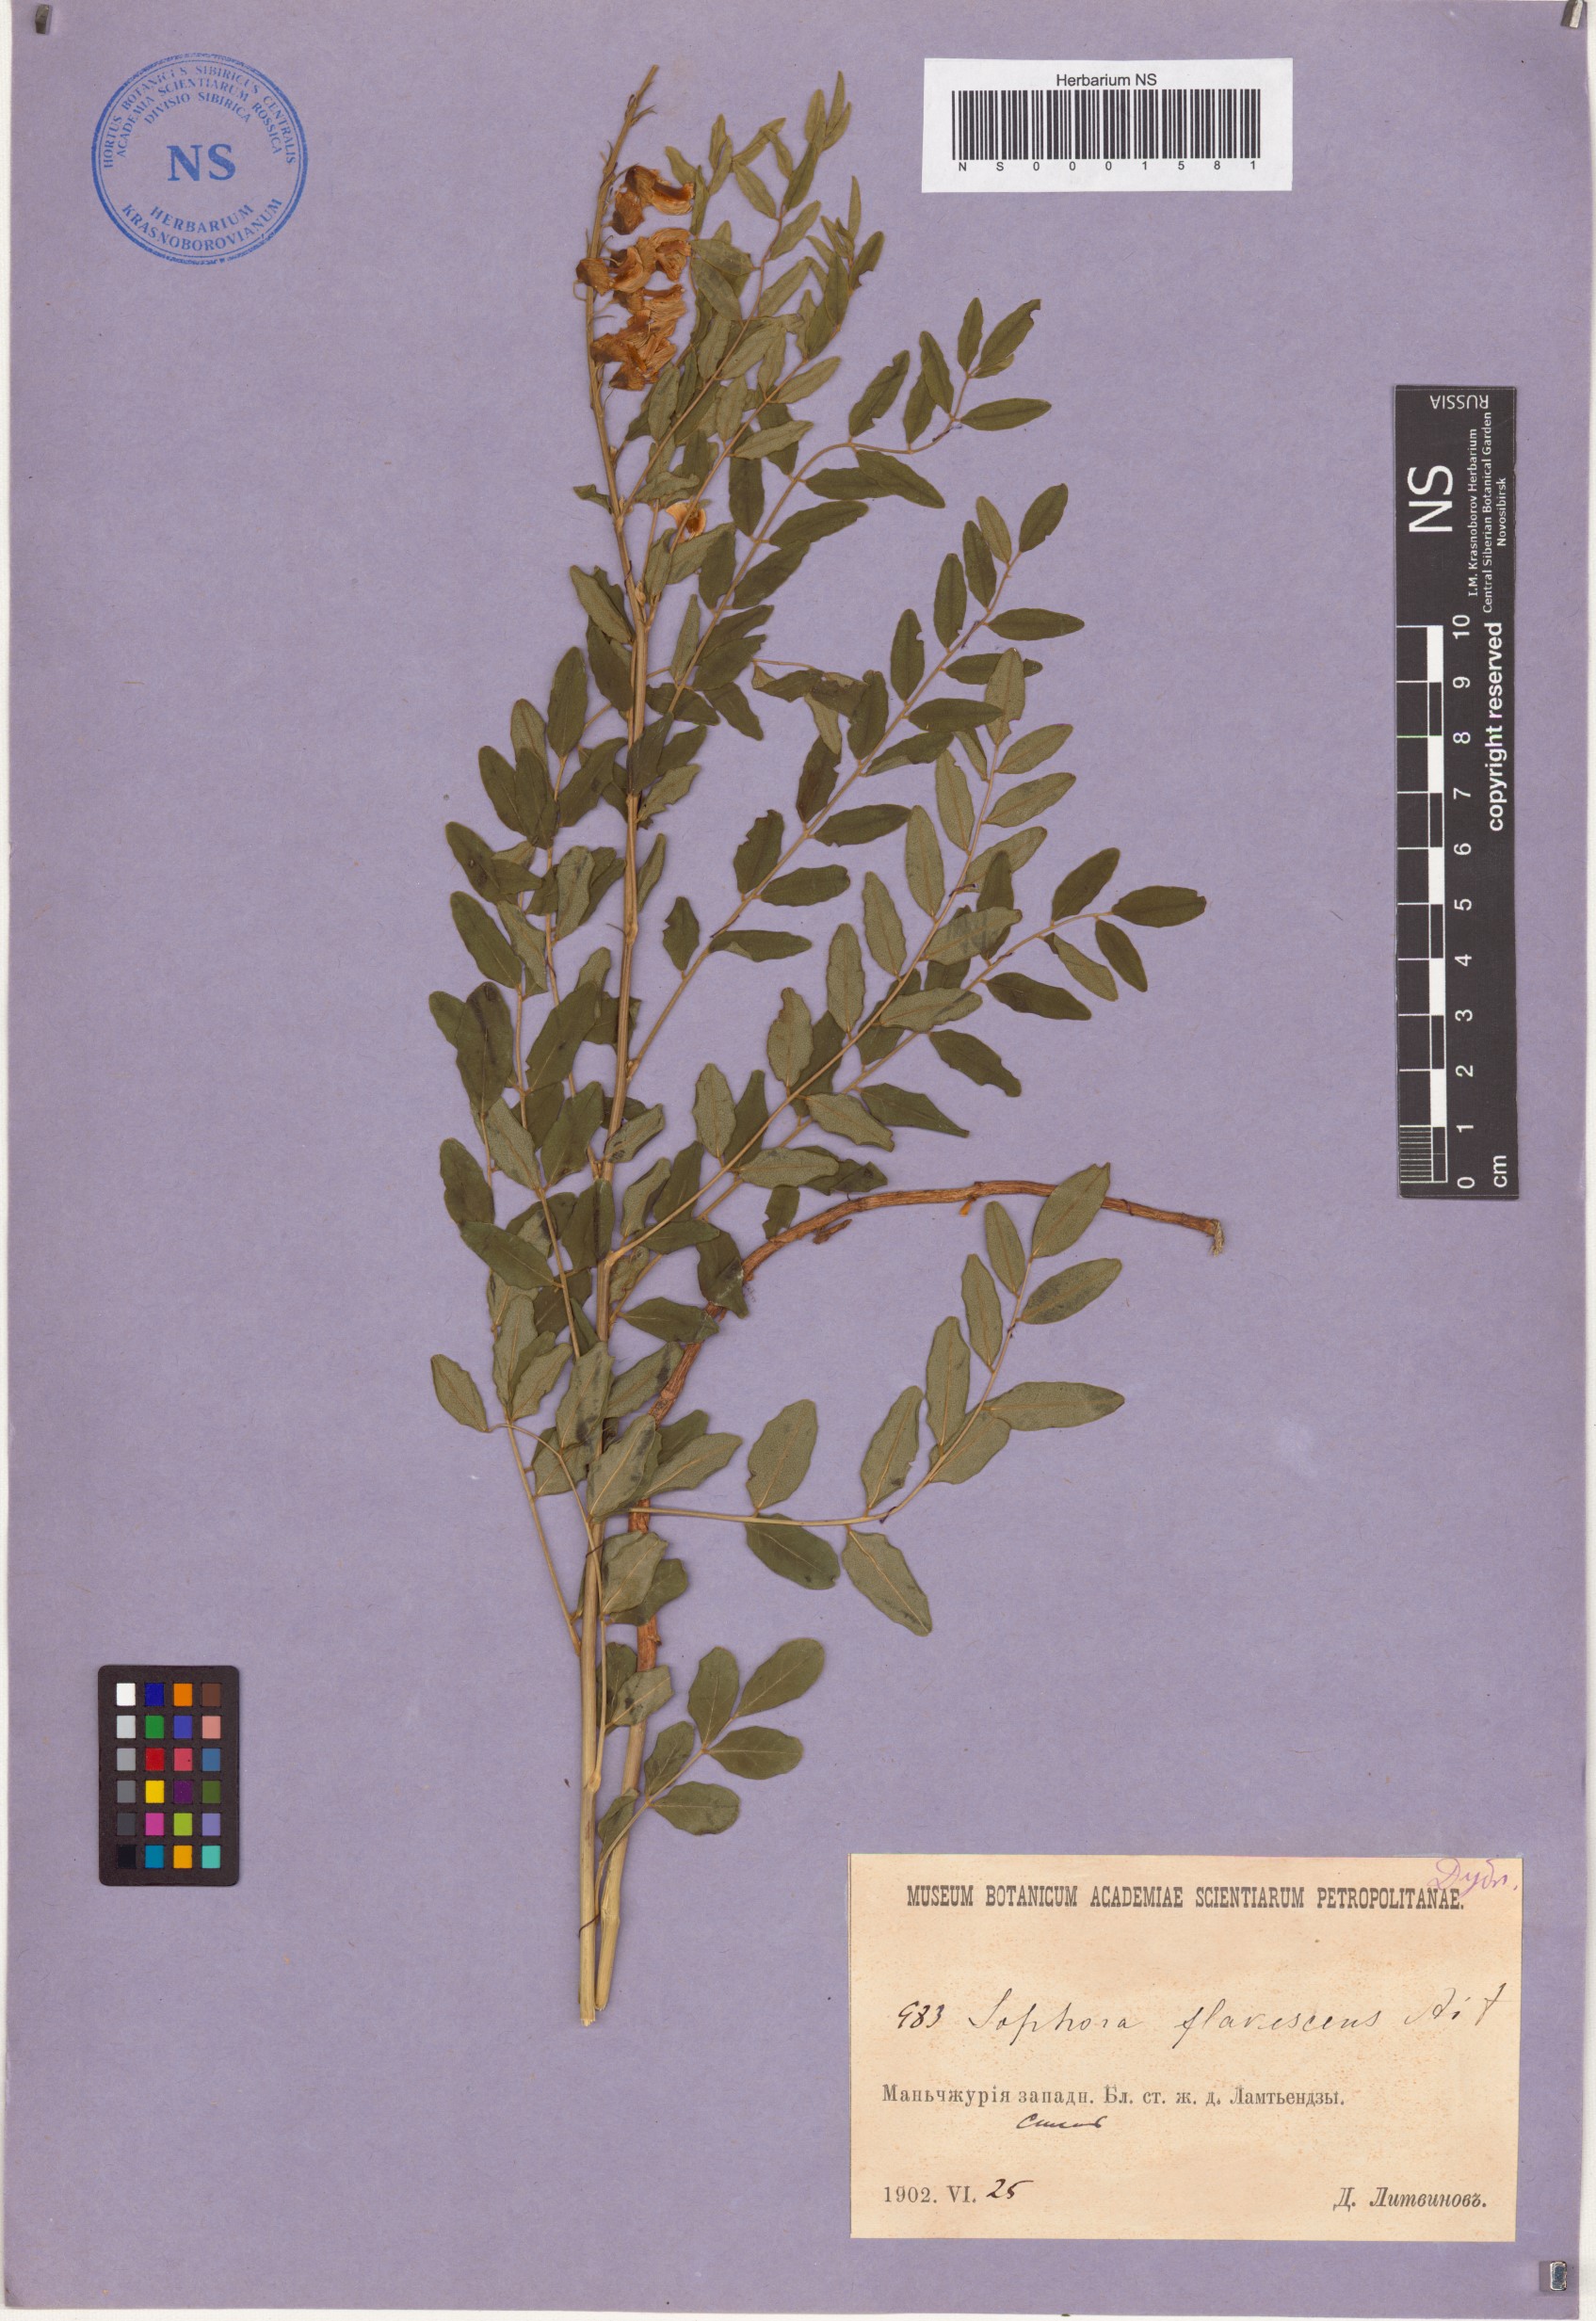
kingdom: Plantae
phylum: Tracheophyta
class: Magnoliopsida
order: Fabales
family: Fabaceae
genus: Sophora
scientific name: Sophora flavescens
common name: Shrubby sophora
